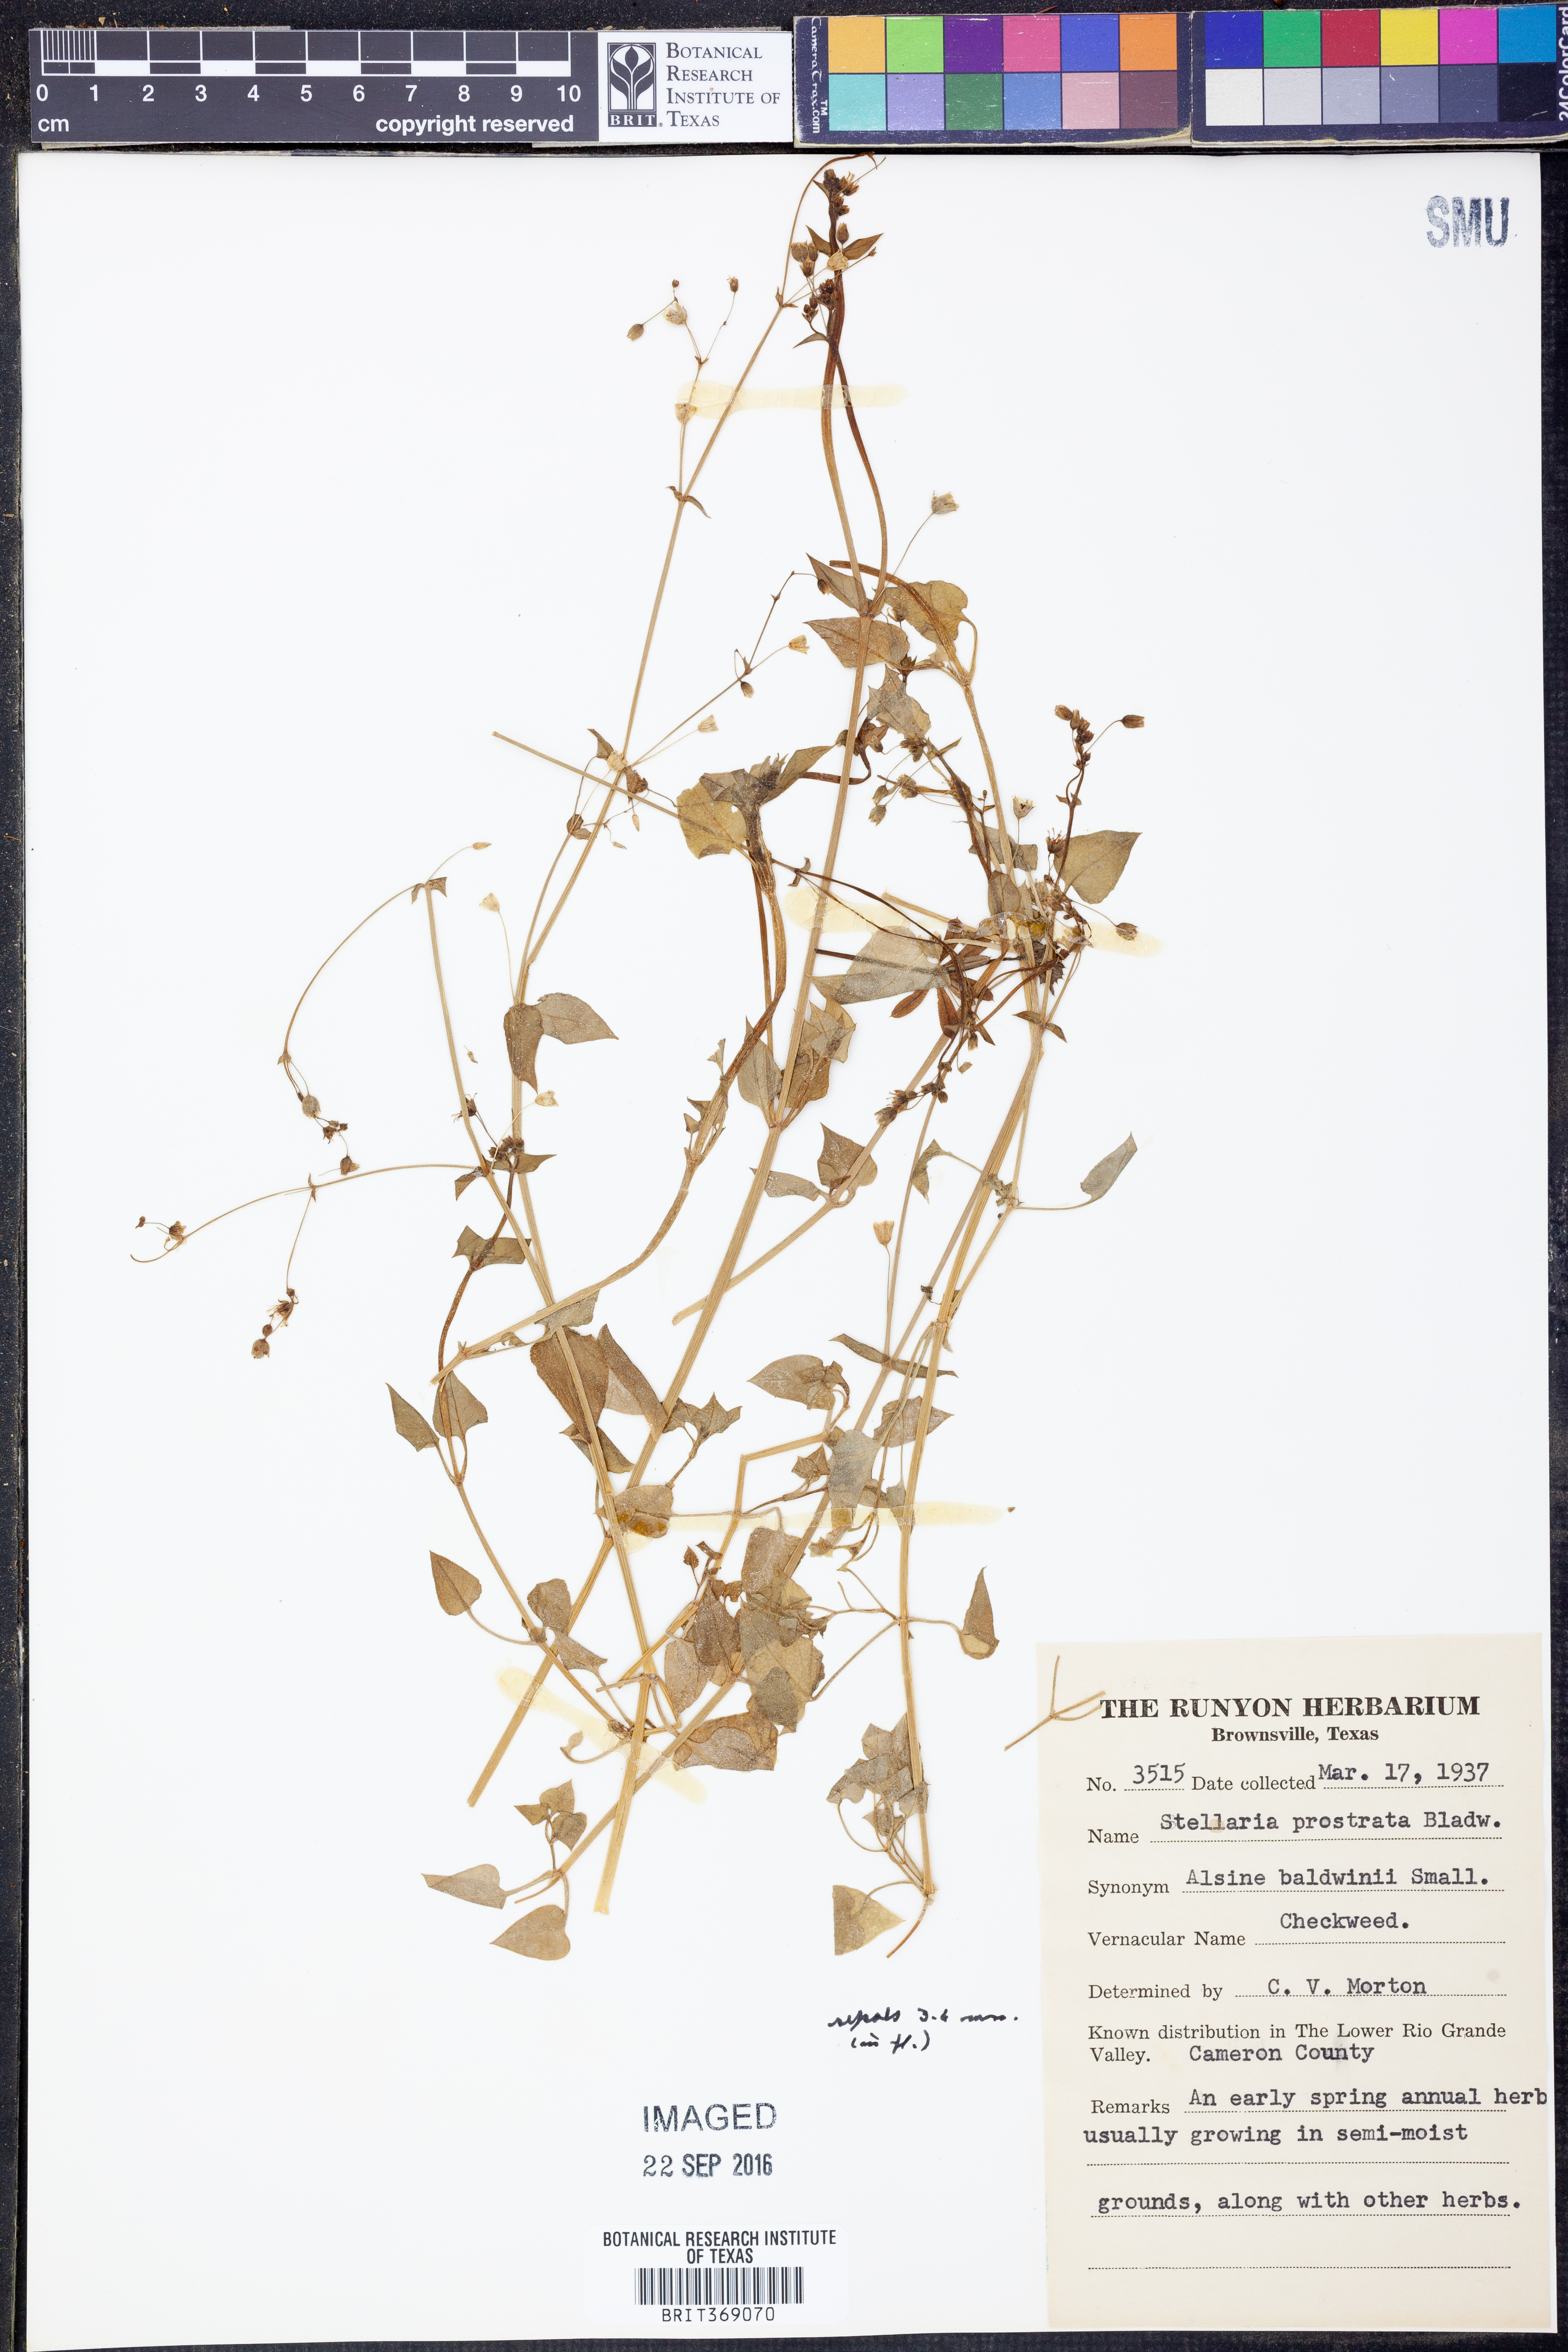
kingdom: Plantae
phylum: Tracheophyta
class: Magnoliopsida
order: Caryophyllales
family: Caryophyllaceae
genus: Stellaria
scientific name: Stellaria cuspidata
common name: Mexican chickweed
